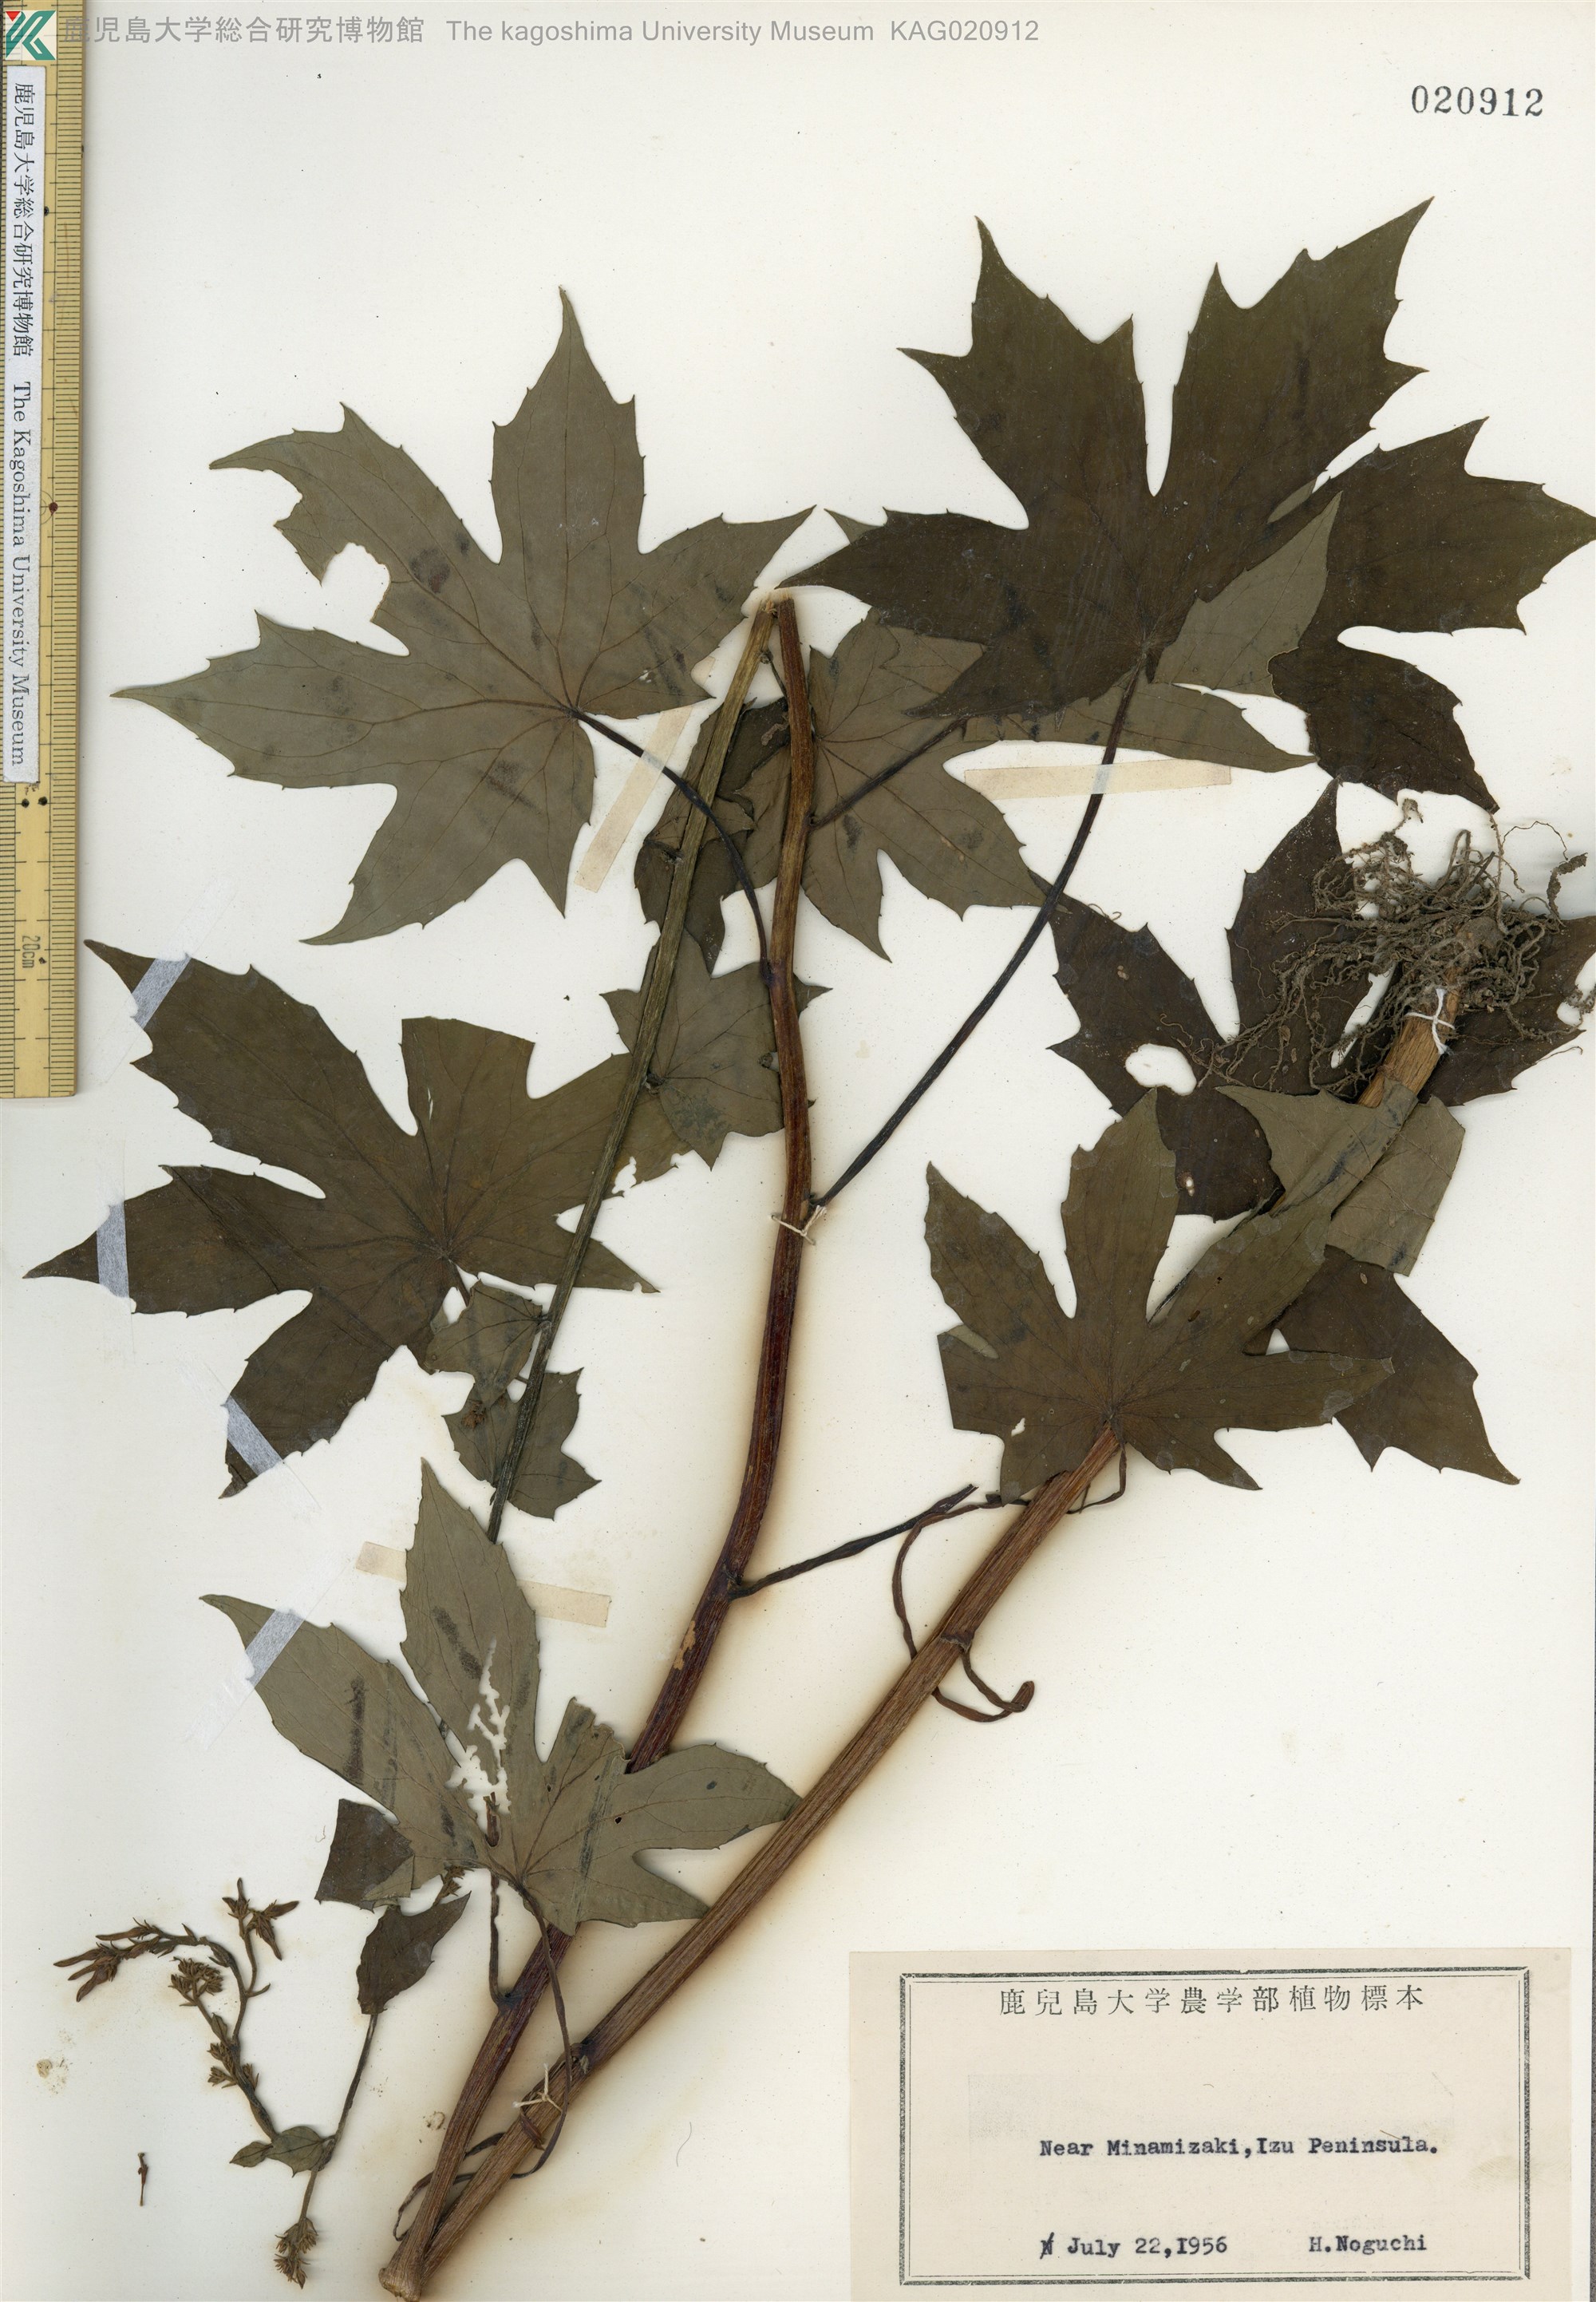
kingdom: Plantae
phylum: Tracheophyta
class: Magnoliopsida
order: Asterales
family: Asteraceae
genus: Japonicalia
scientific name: Japonicalia delphiniifolia
